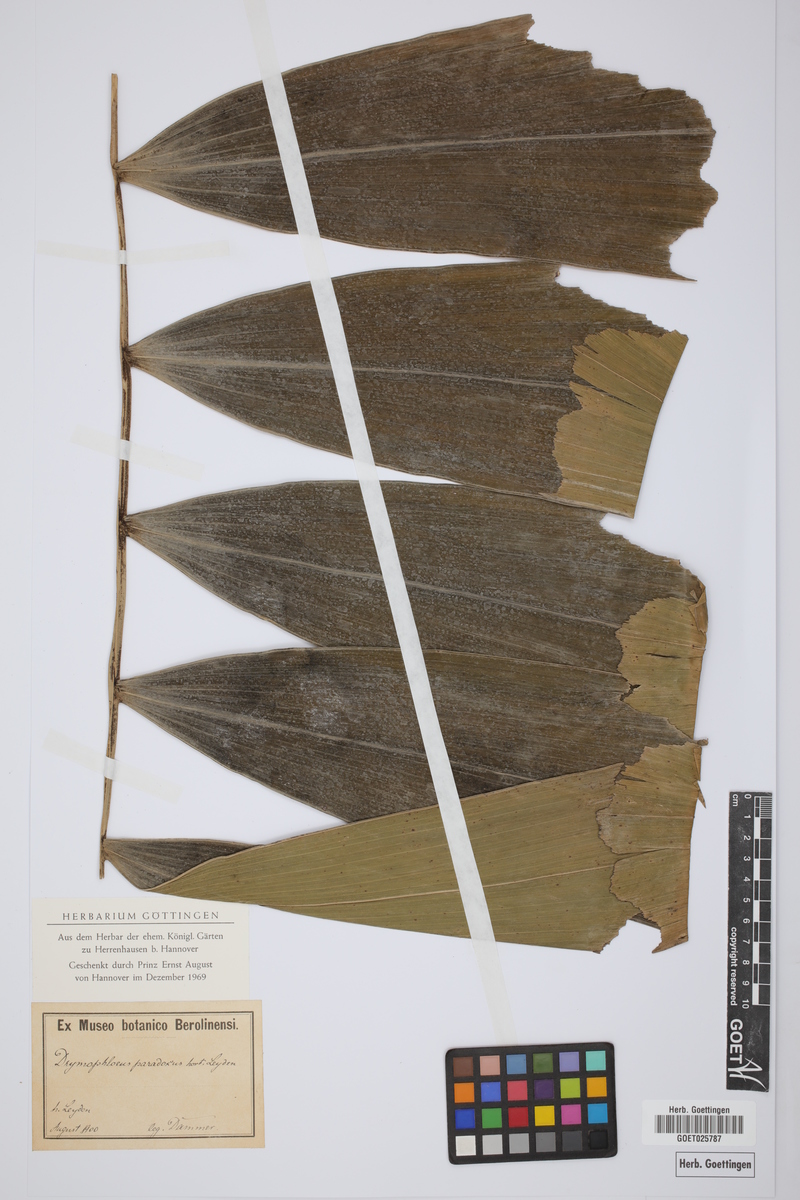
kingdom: Plantae
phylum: Tracheophyta
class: Liliopsida
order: Arecales
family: Arecaceae
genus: Ptychococcus
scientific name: Ptychococcus paradoxus
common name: Wrinkled-fruit palm
